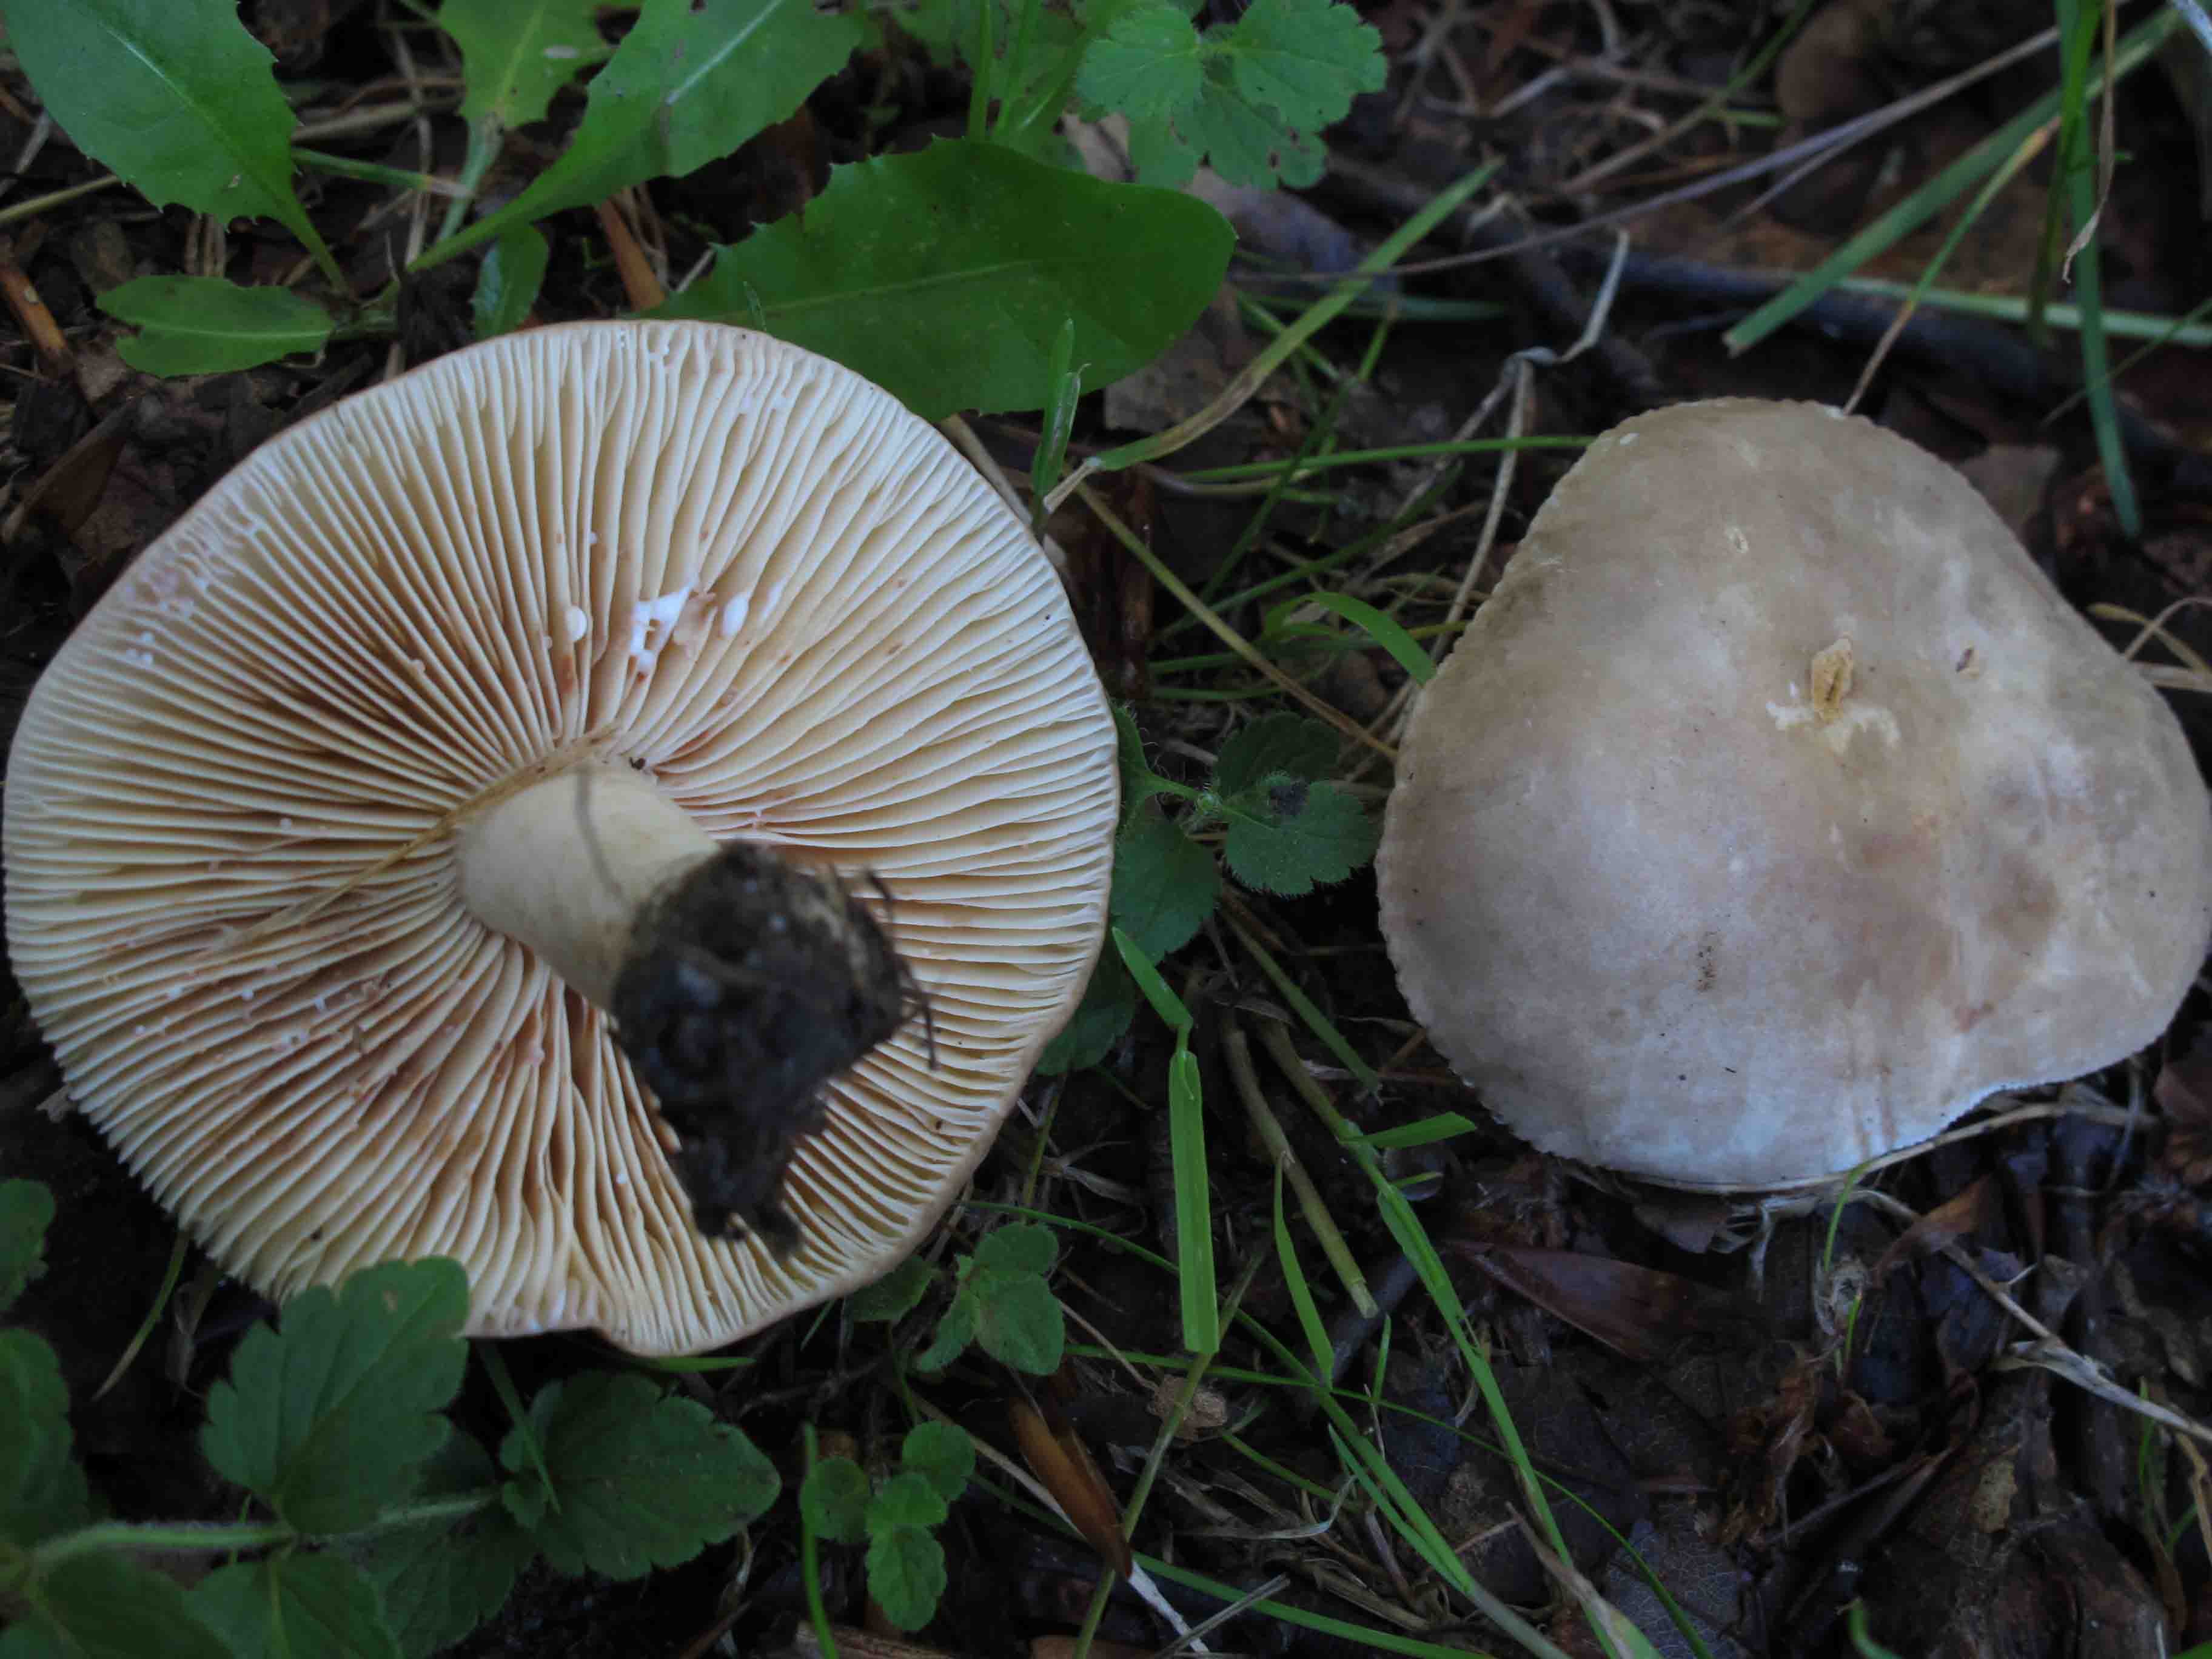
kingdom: Fungi
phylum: Basidiomycota
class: Agaricomycetes
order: Russulales
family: Russulaceae
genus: Lactarius
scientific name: Lactarius azonites
